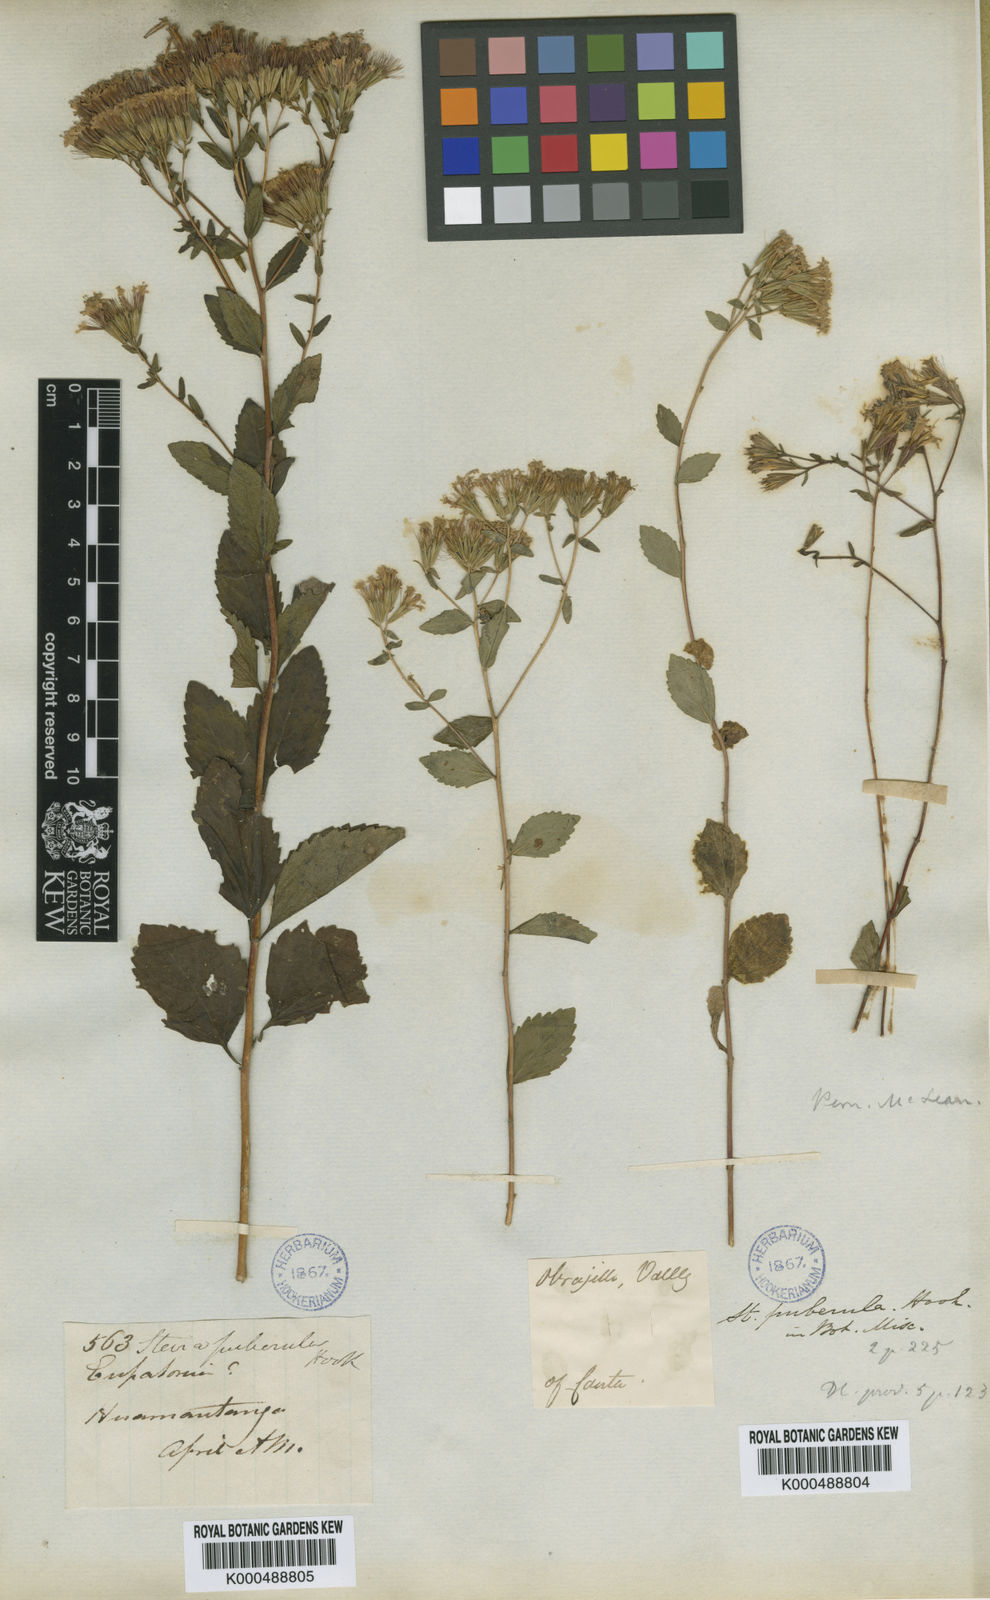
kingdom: Plantae
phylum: Tracheophyta
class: Magnoliopsida
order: Asterales
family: Asteraceae
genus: Stevia
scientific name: Stevia puberula
